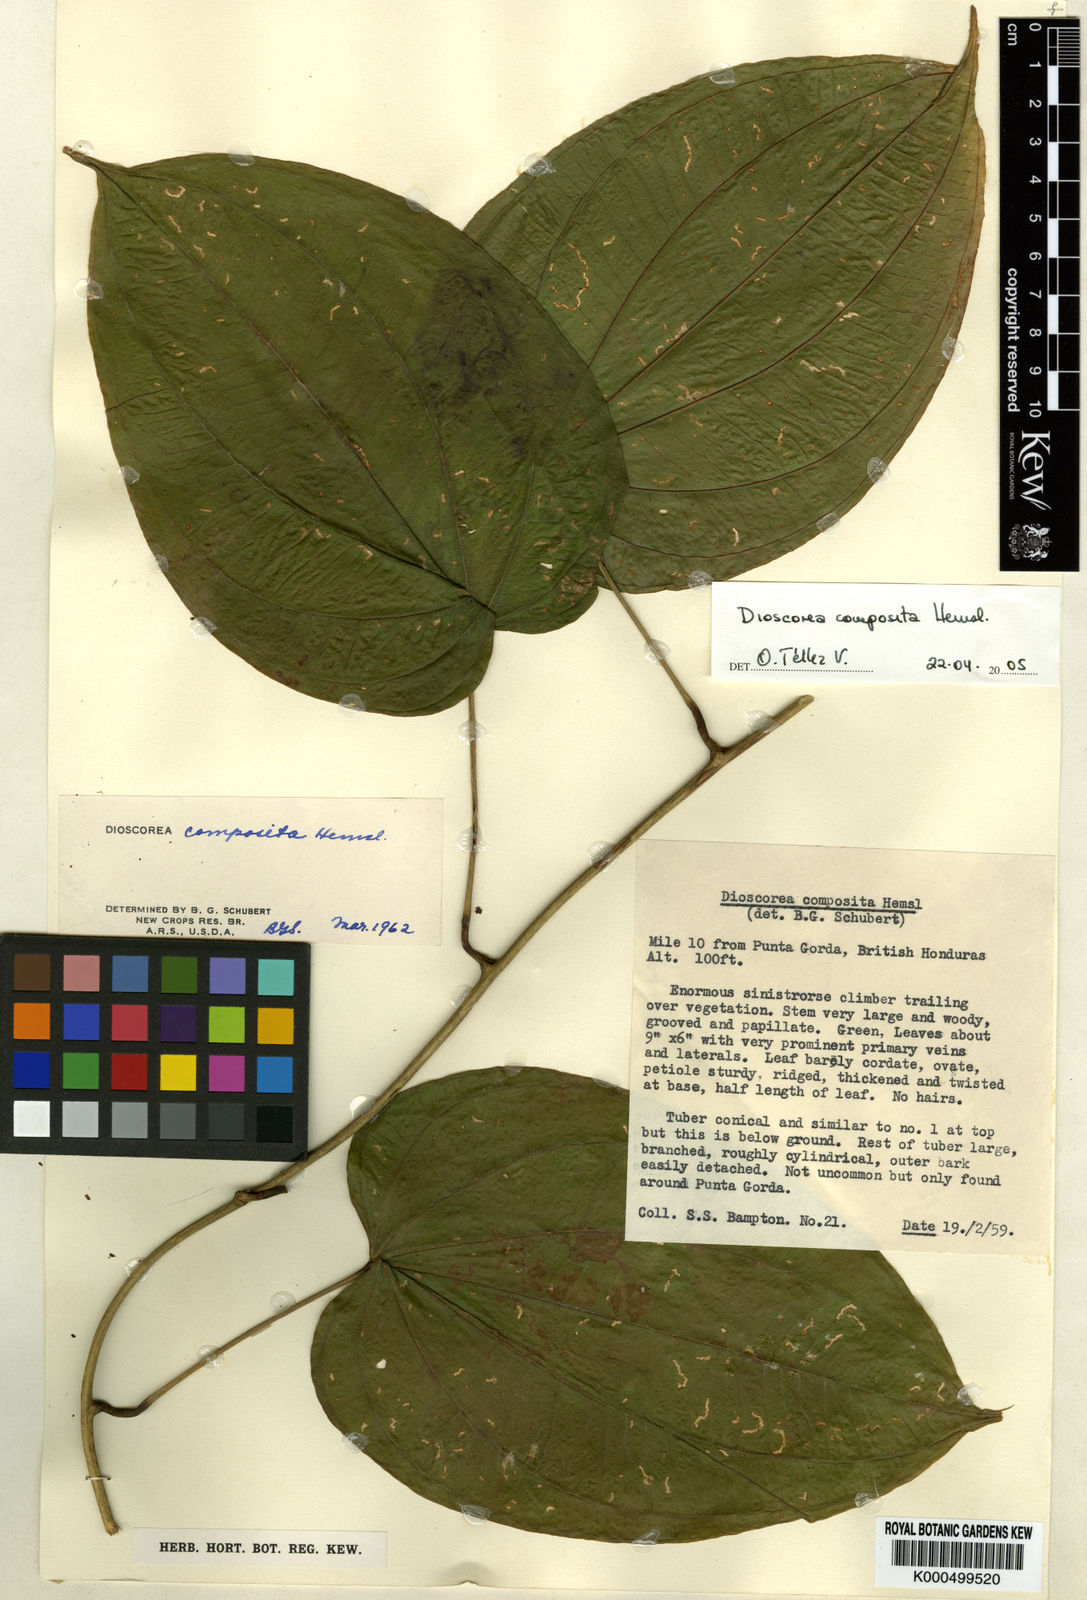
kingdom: Plantae
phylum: Tracheophyta
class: Liliopsida
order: Dioscoreales
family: Dioscoreaceae
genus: Dioscorea
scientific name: Dioscorea composita
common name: Barbasco
